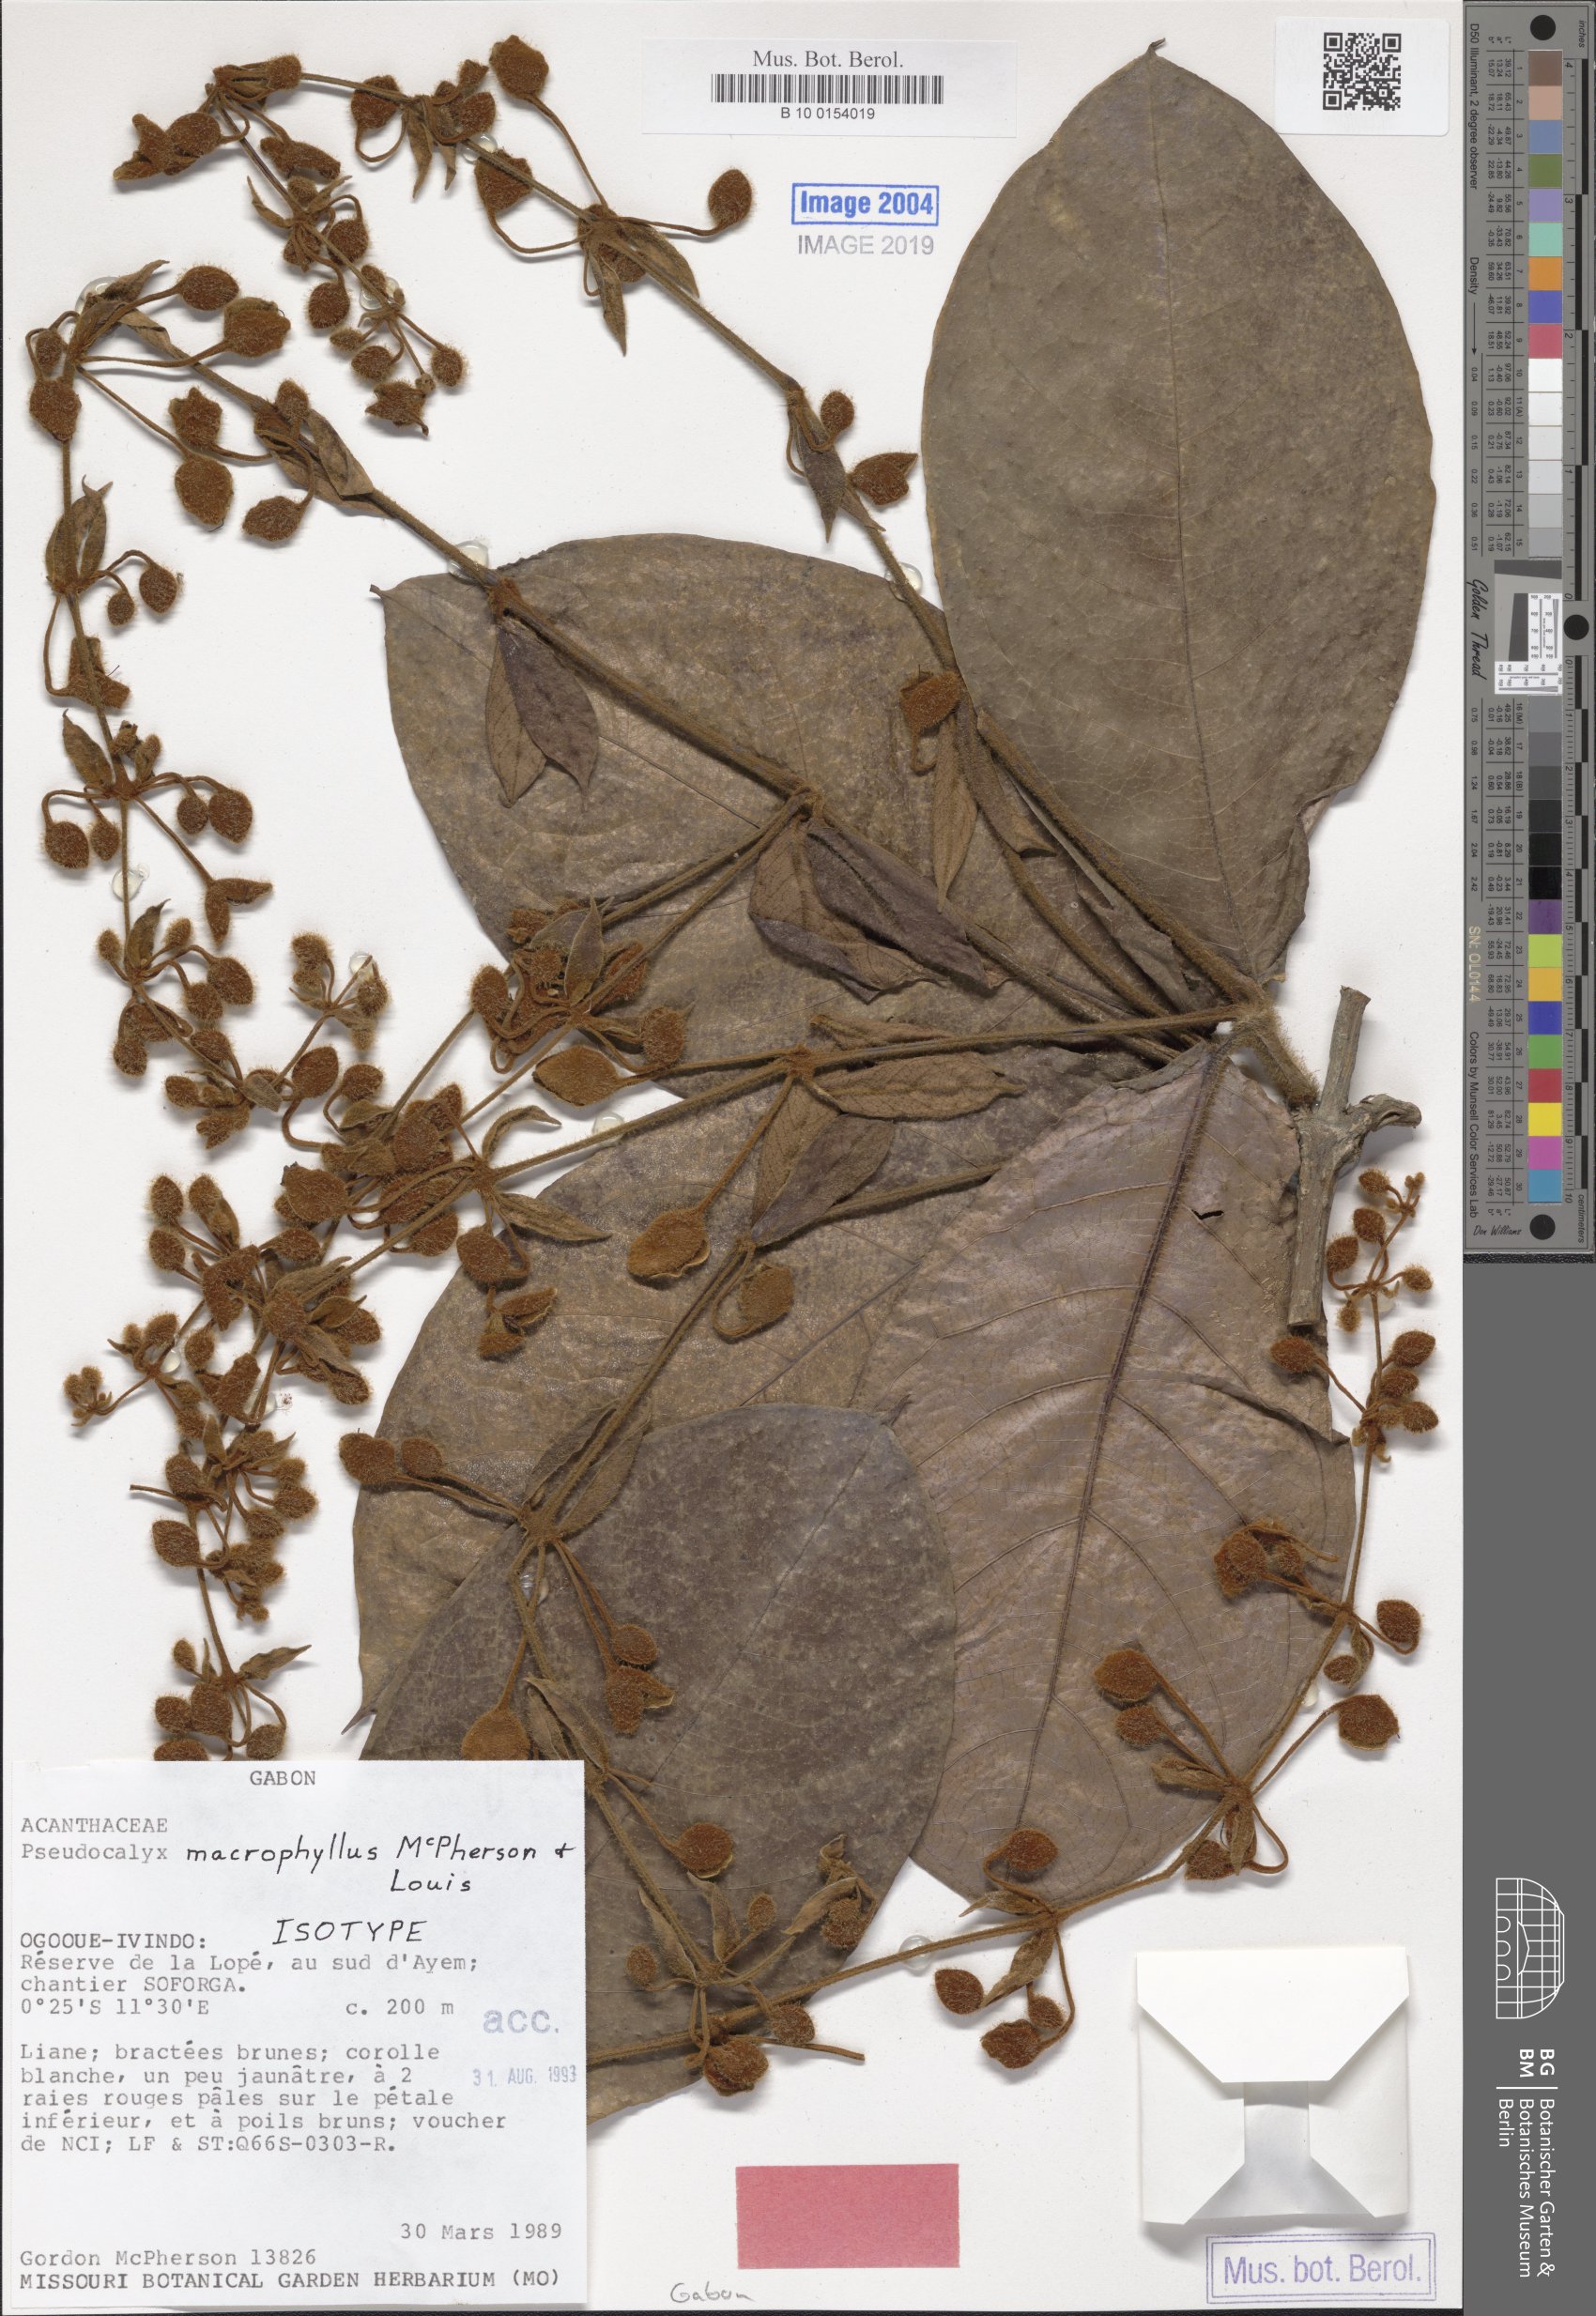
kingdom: Plantae
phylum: Tracheophyta
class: Magnoliopsida
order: Lamiales
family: Acanthaceae
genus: Pseudocalyx
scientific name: Pseudocalyx macrophyllus
